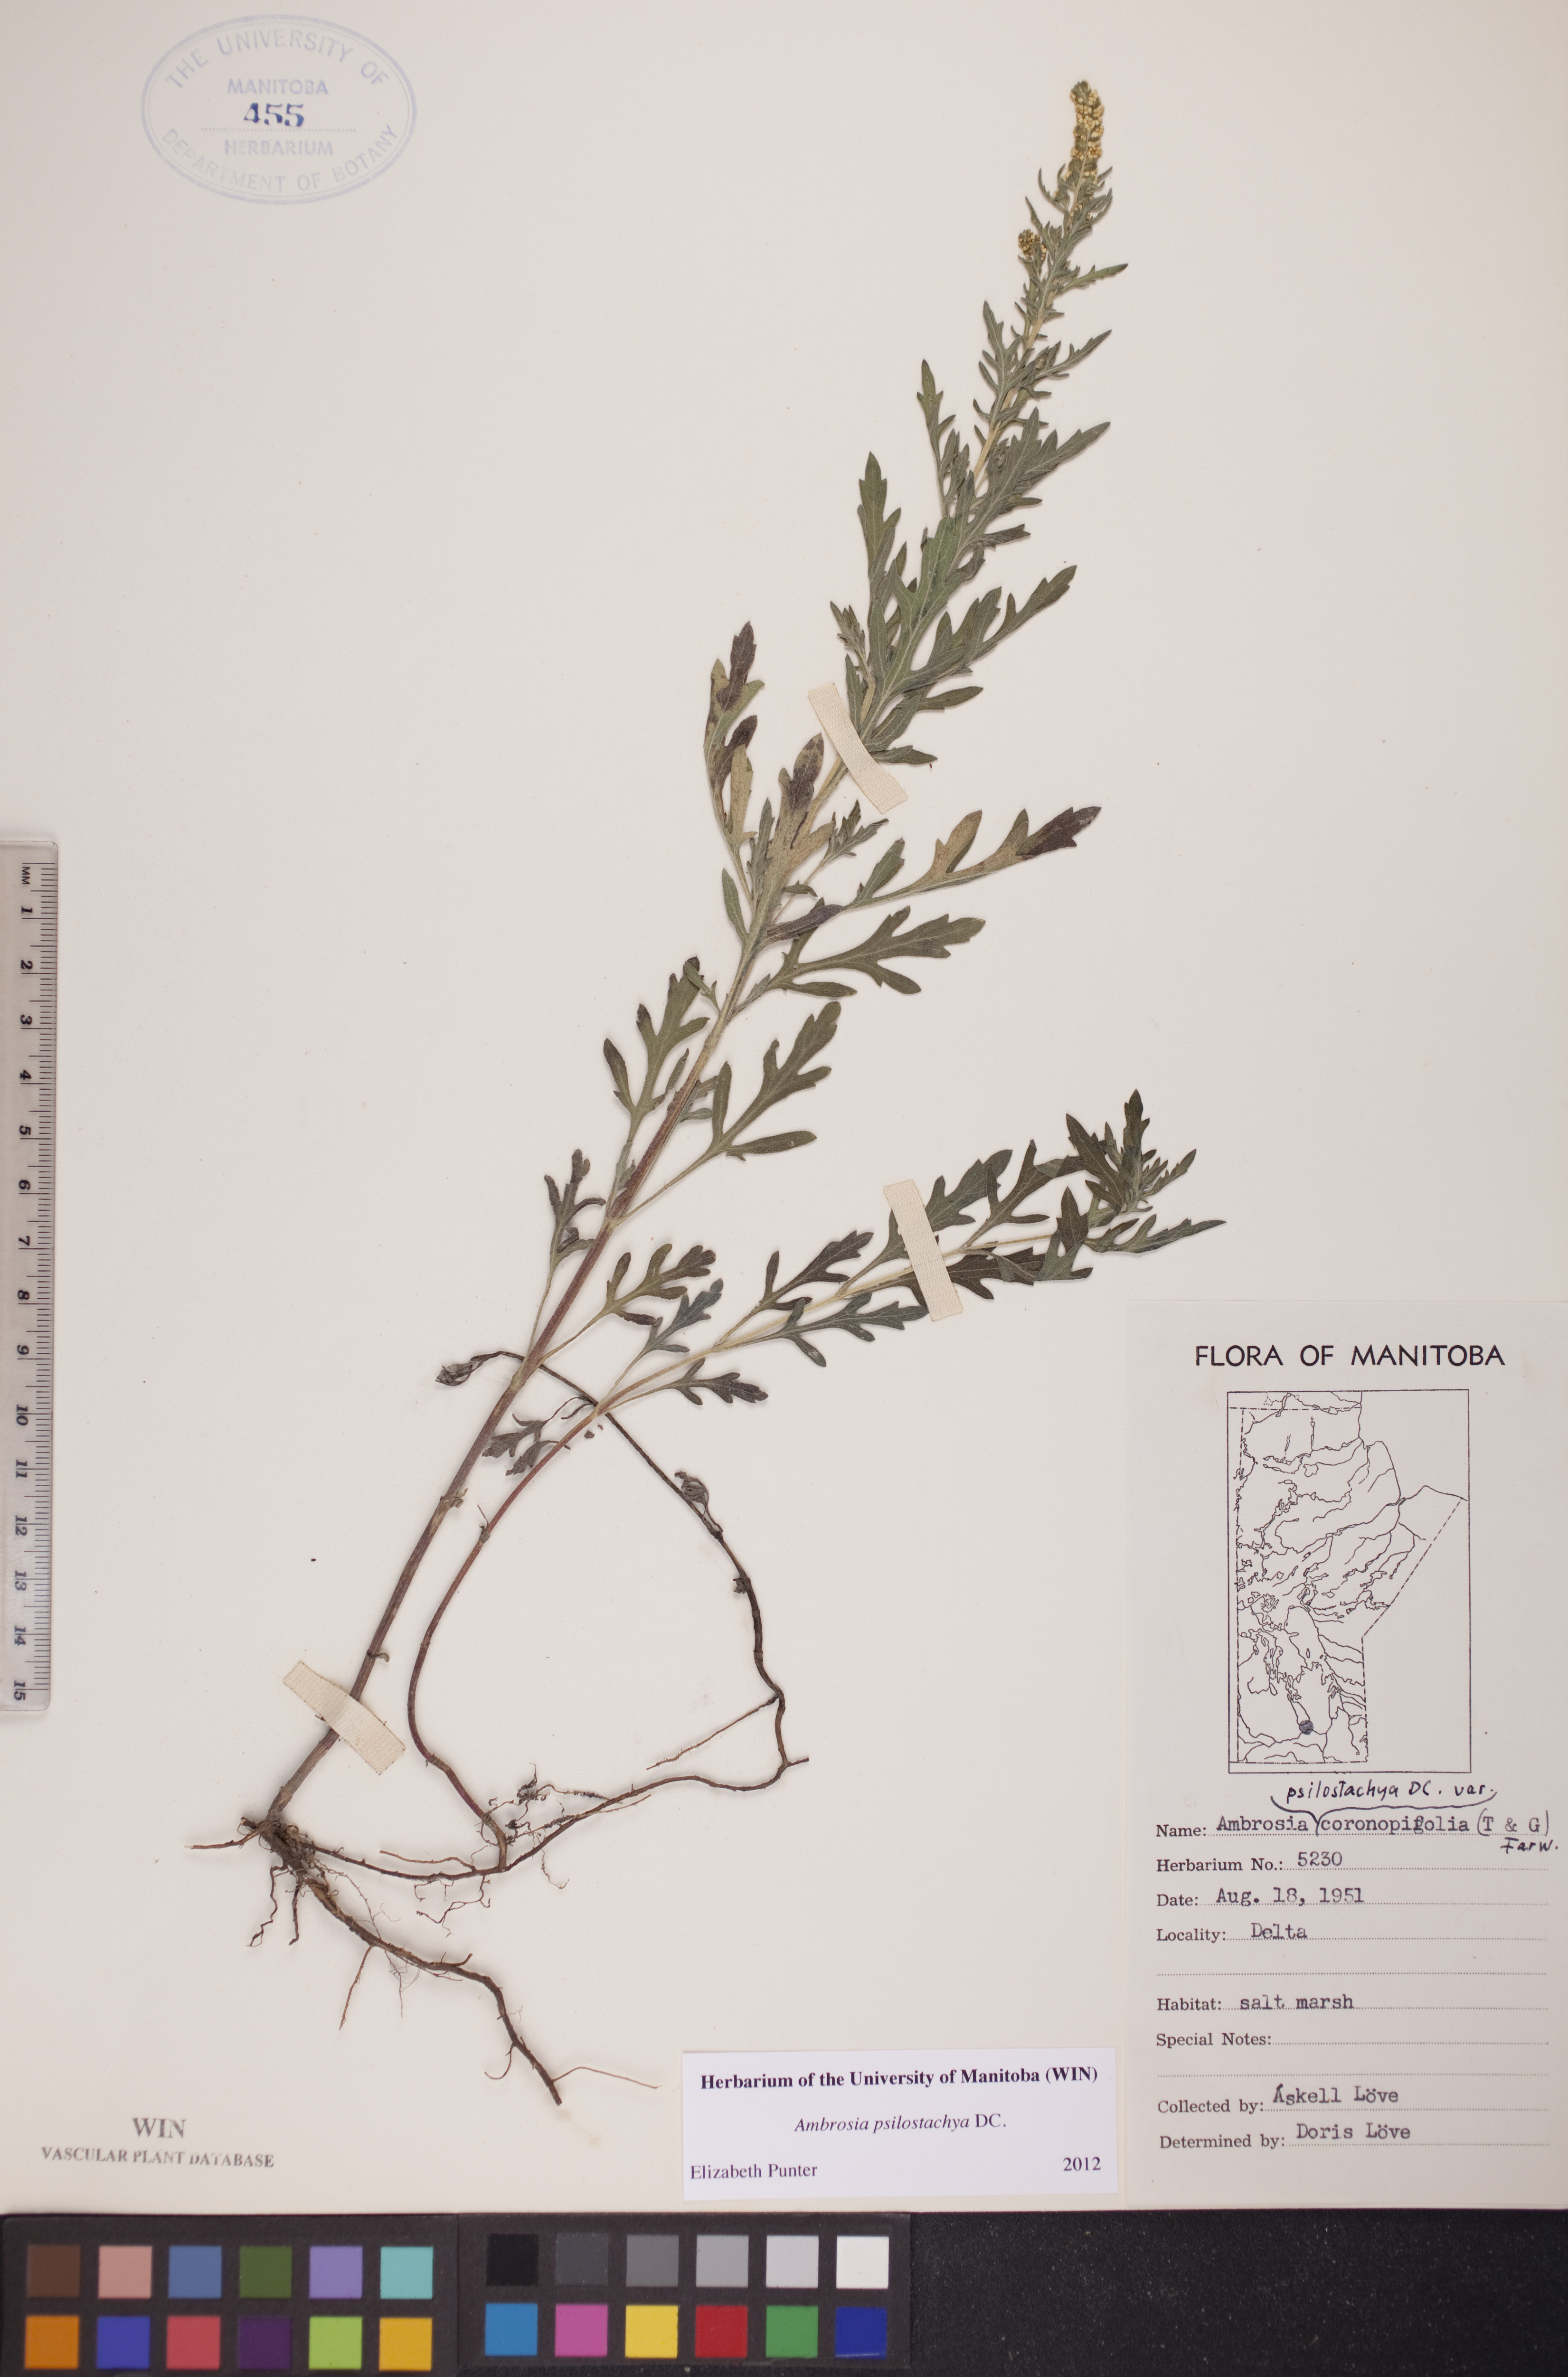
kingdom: Plantae
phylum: Tracheophyta
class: Magnoliopsida
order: Asterales
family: Asteraceae
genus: Ambrosia
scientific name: Ambrosia psilostachya
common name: Perennial ragweed
